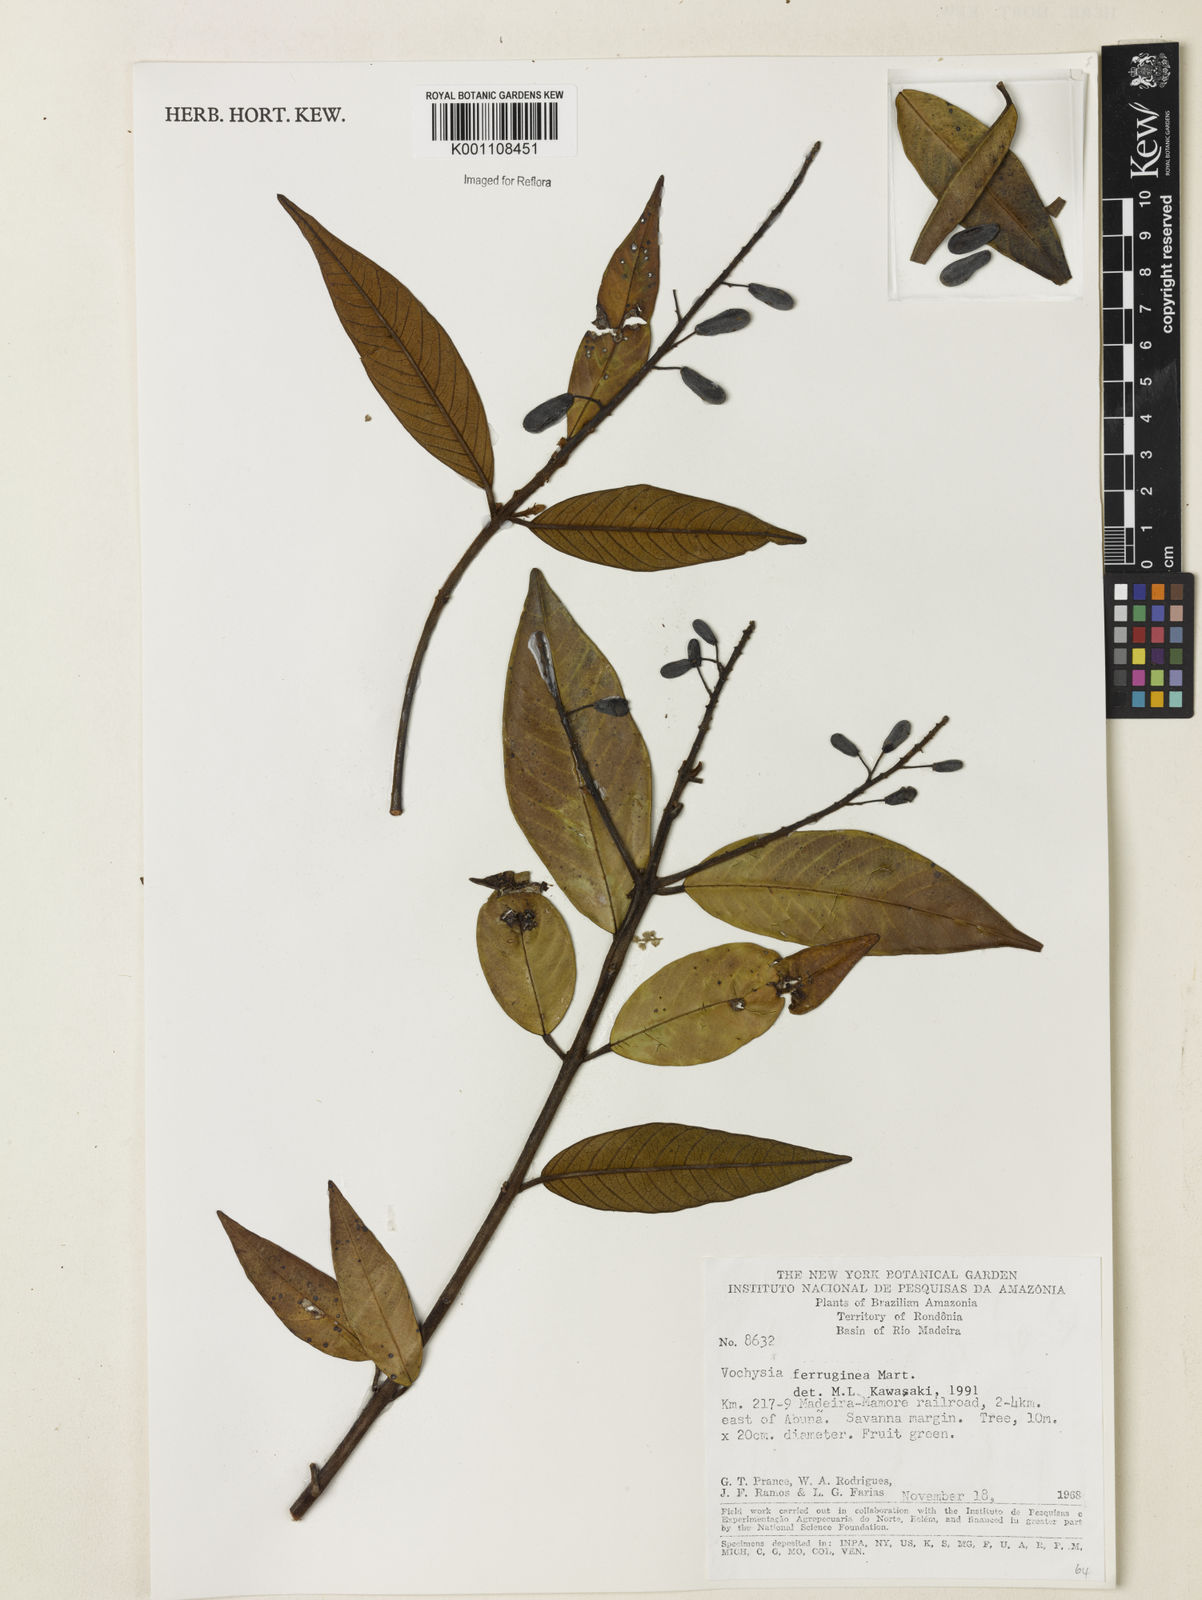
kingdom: Plantae
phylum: Tracheophyta
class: Magnoliopsida
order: Myrtales
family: Vochysiaceae
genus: Vochysia
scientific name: Vochysia ferruginea
